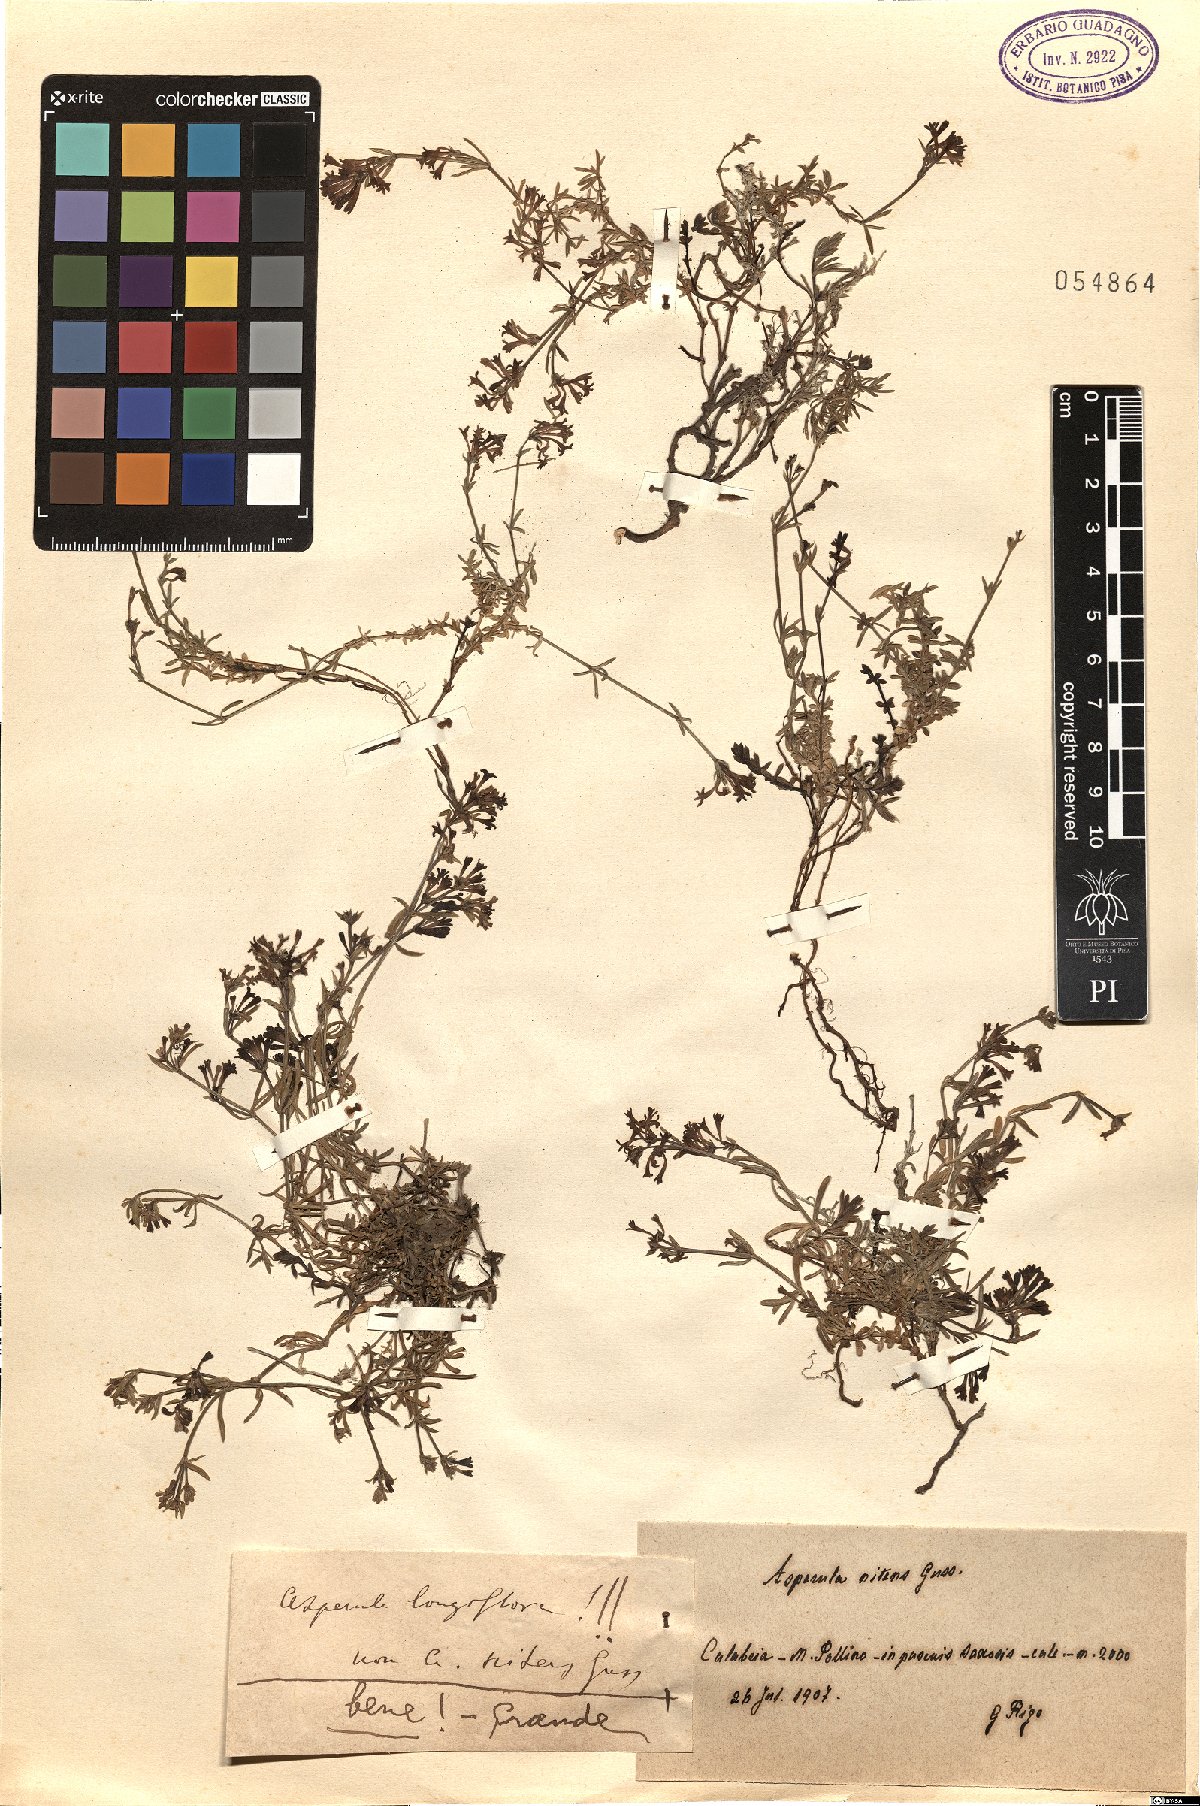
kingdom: Plantae
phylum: Tracheophyta
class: Magnoliopsida
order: Gentianales
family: Rubiaceae
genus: Cynanchica
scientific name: Cynanchica aristata
